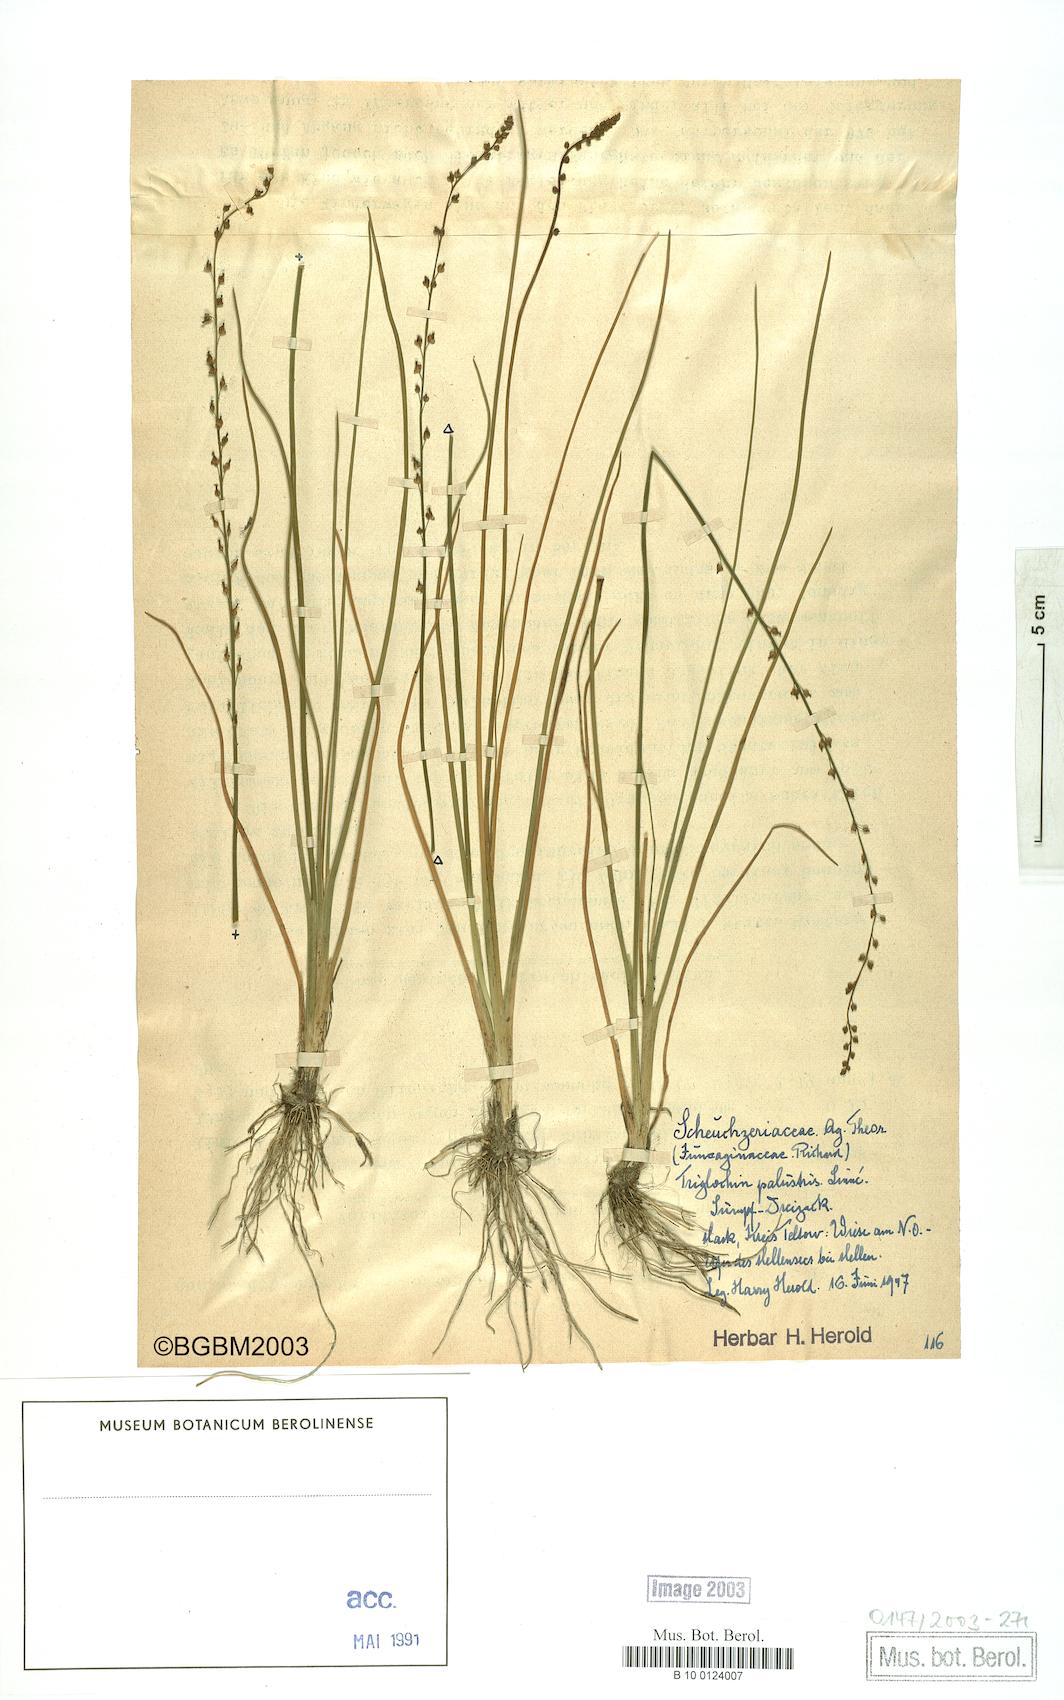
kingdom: Plantae
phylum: Tracheophyta
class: Liliopsida
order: Alismatales
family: Juncaginaceae
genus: Triglochin
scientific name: Triglochin palustris
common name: Marsh arrowgrass
